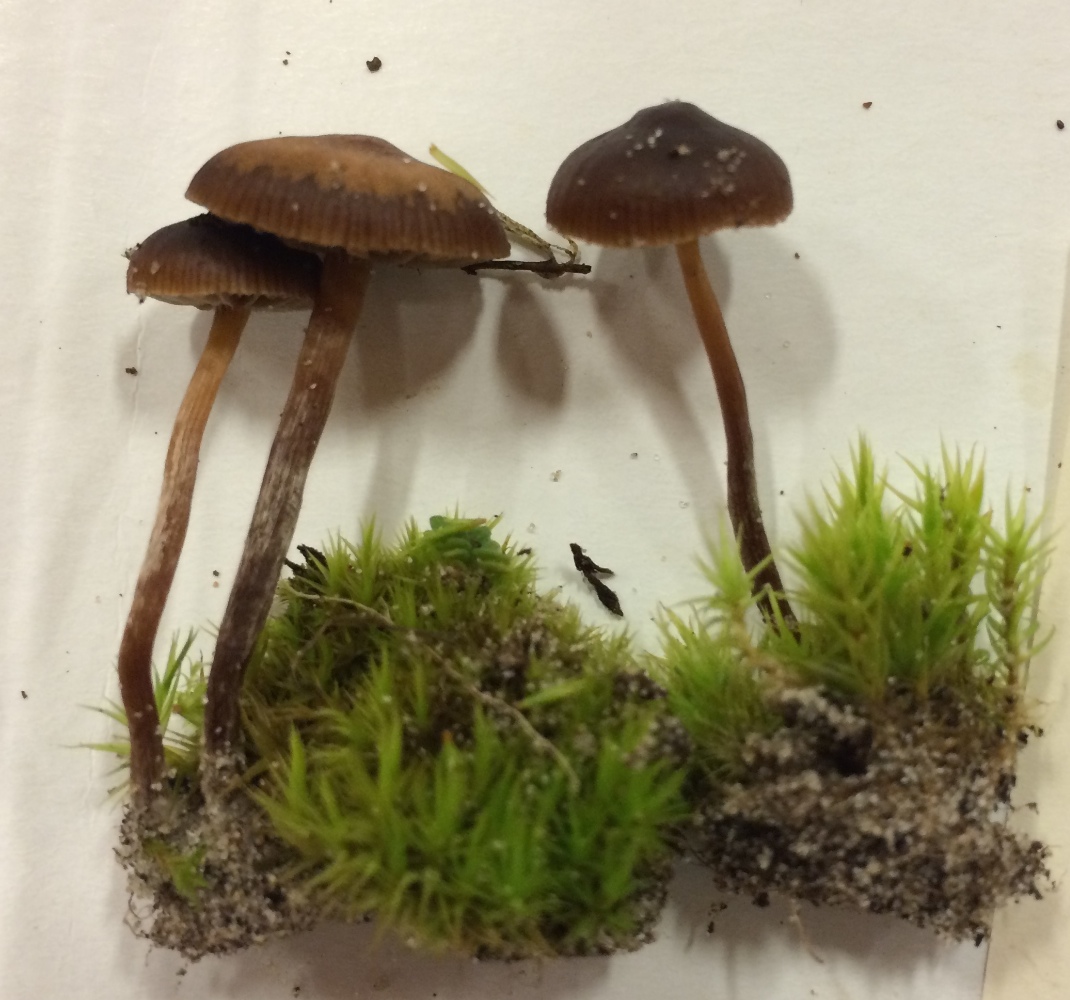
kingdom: Fungi
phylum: Basidiomycota
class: Agaricomycetes
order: Agaricales
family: Strophariaceae
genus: Deconica
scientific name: Deconica montana
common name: rødbrun stråhat
